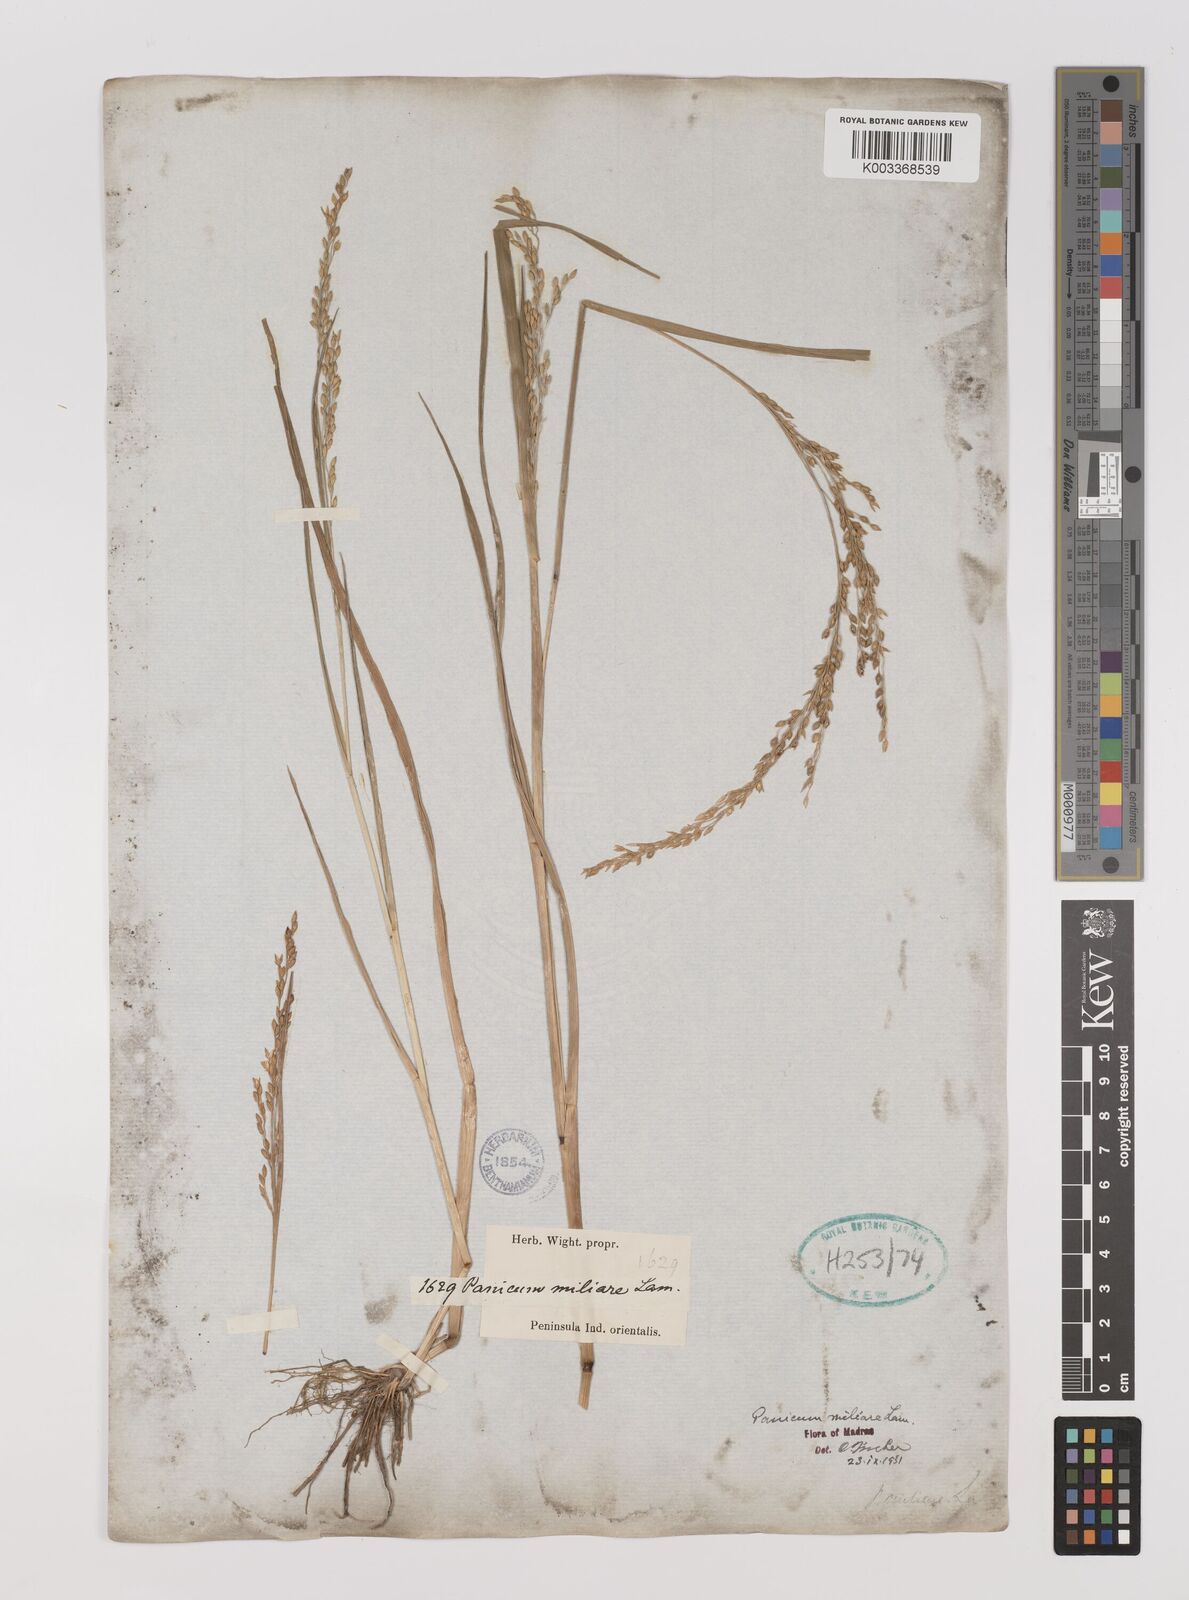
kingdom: Plantae
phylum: Tracheophyta
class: Liliopsida
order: Poales
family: Poaceae
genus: Panicum
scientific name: Panicum sumatrense
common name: Little millet
